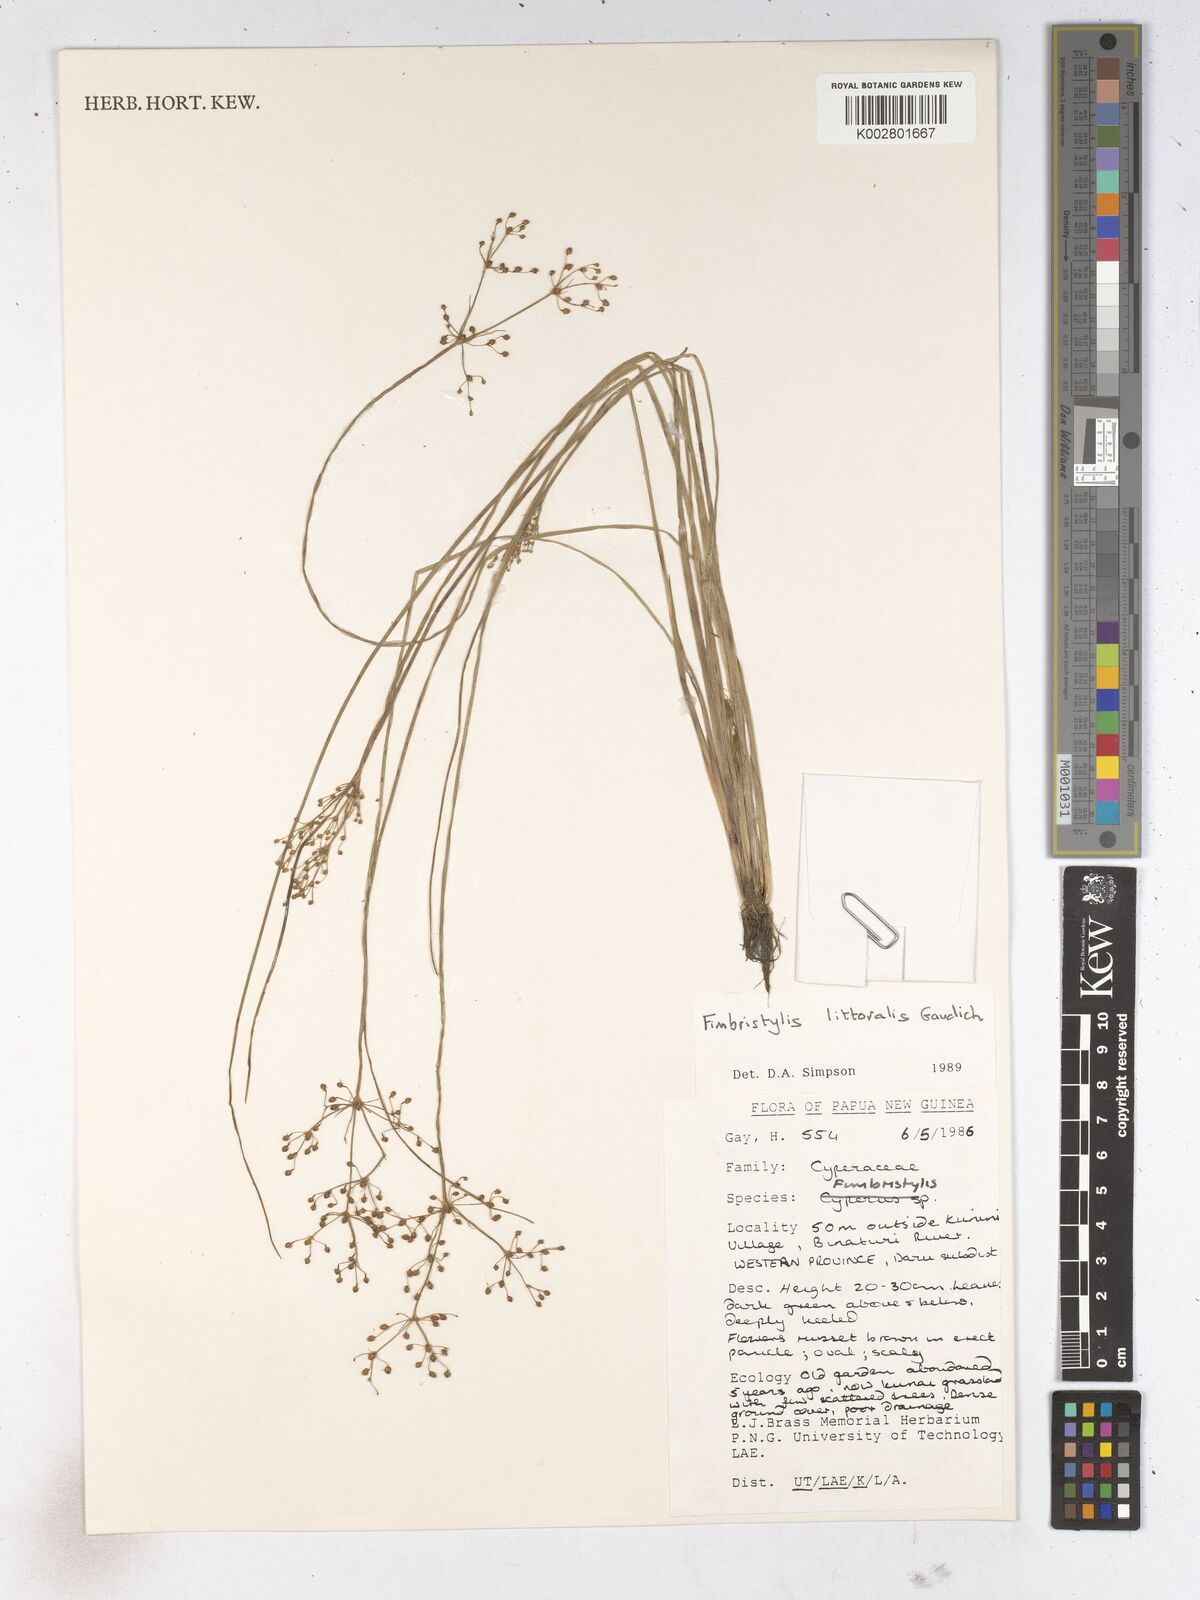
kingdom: Plantae
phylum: Tracheophyta
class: Liliopsida
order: Poales
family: Cyperaceae
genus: Fimbristylis
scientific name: Fimbristylis littoralis
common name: Fimbry
